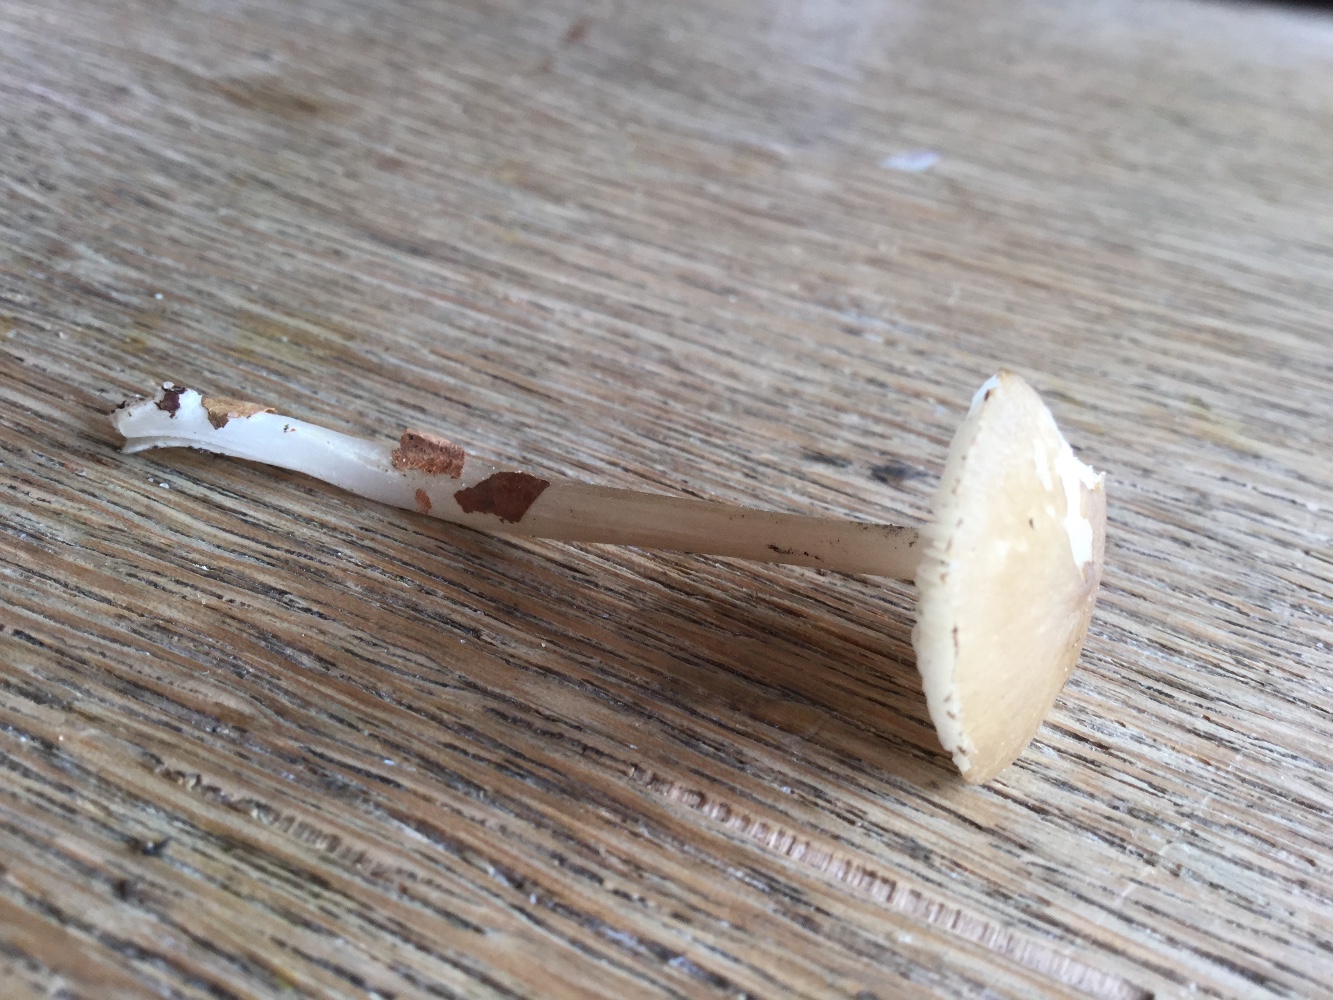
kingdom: Fungi
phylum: Basidiomycota
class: Agaricomycetes
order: Agaricales
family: Porotheleaceae
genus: Hydropodia
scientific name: Hydropodia subalpina
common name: vår-fnugfod
